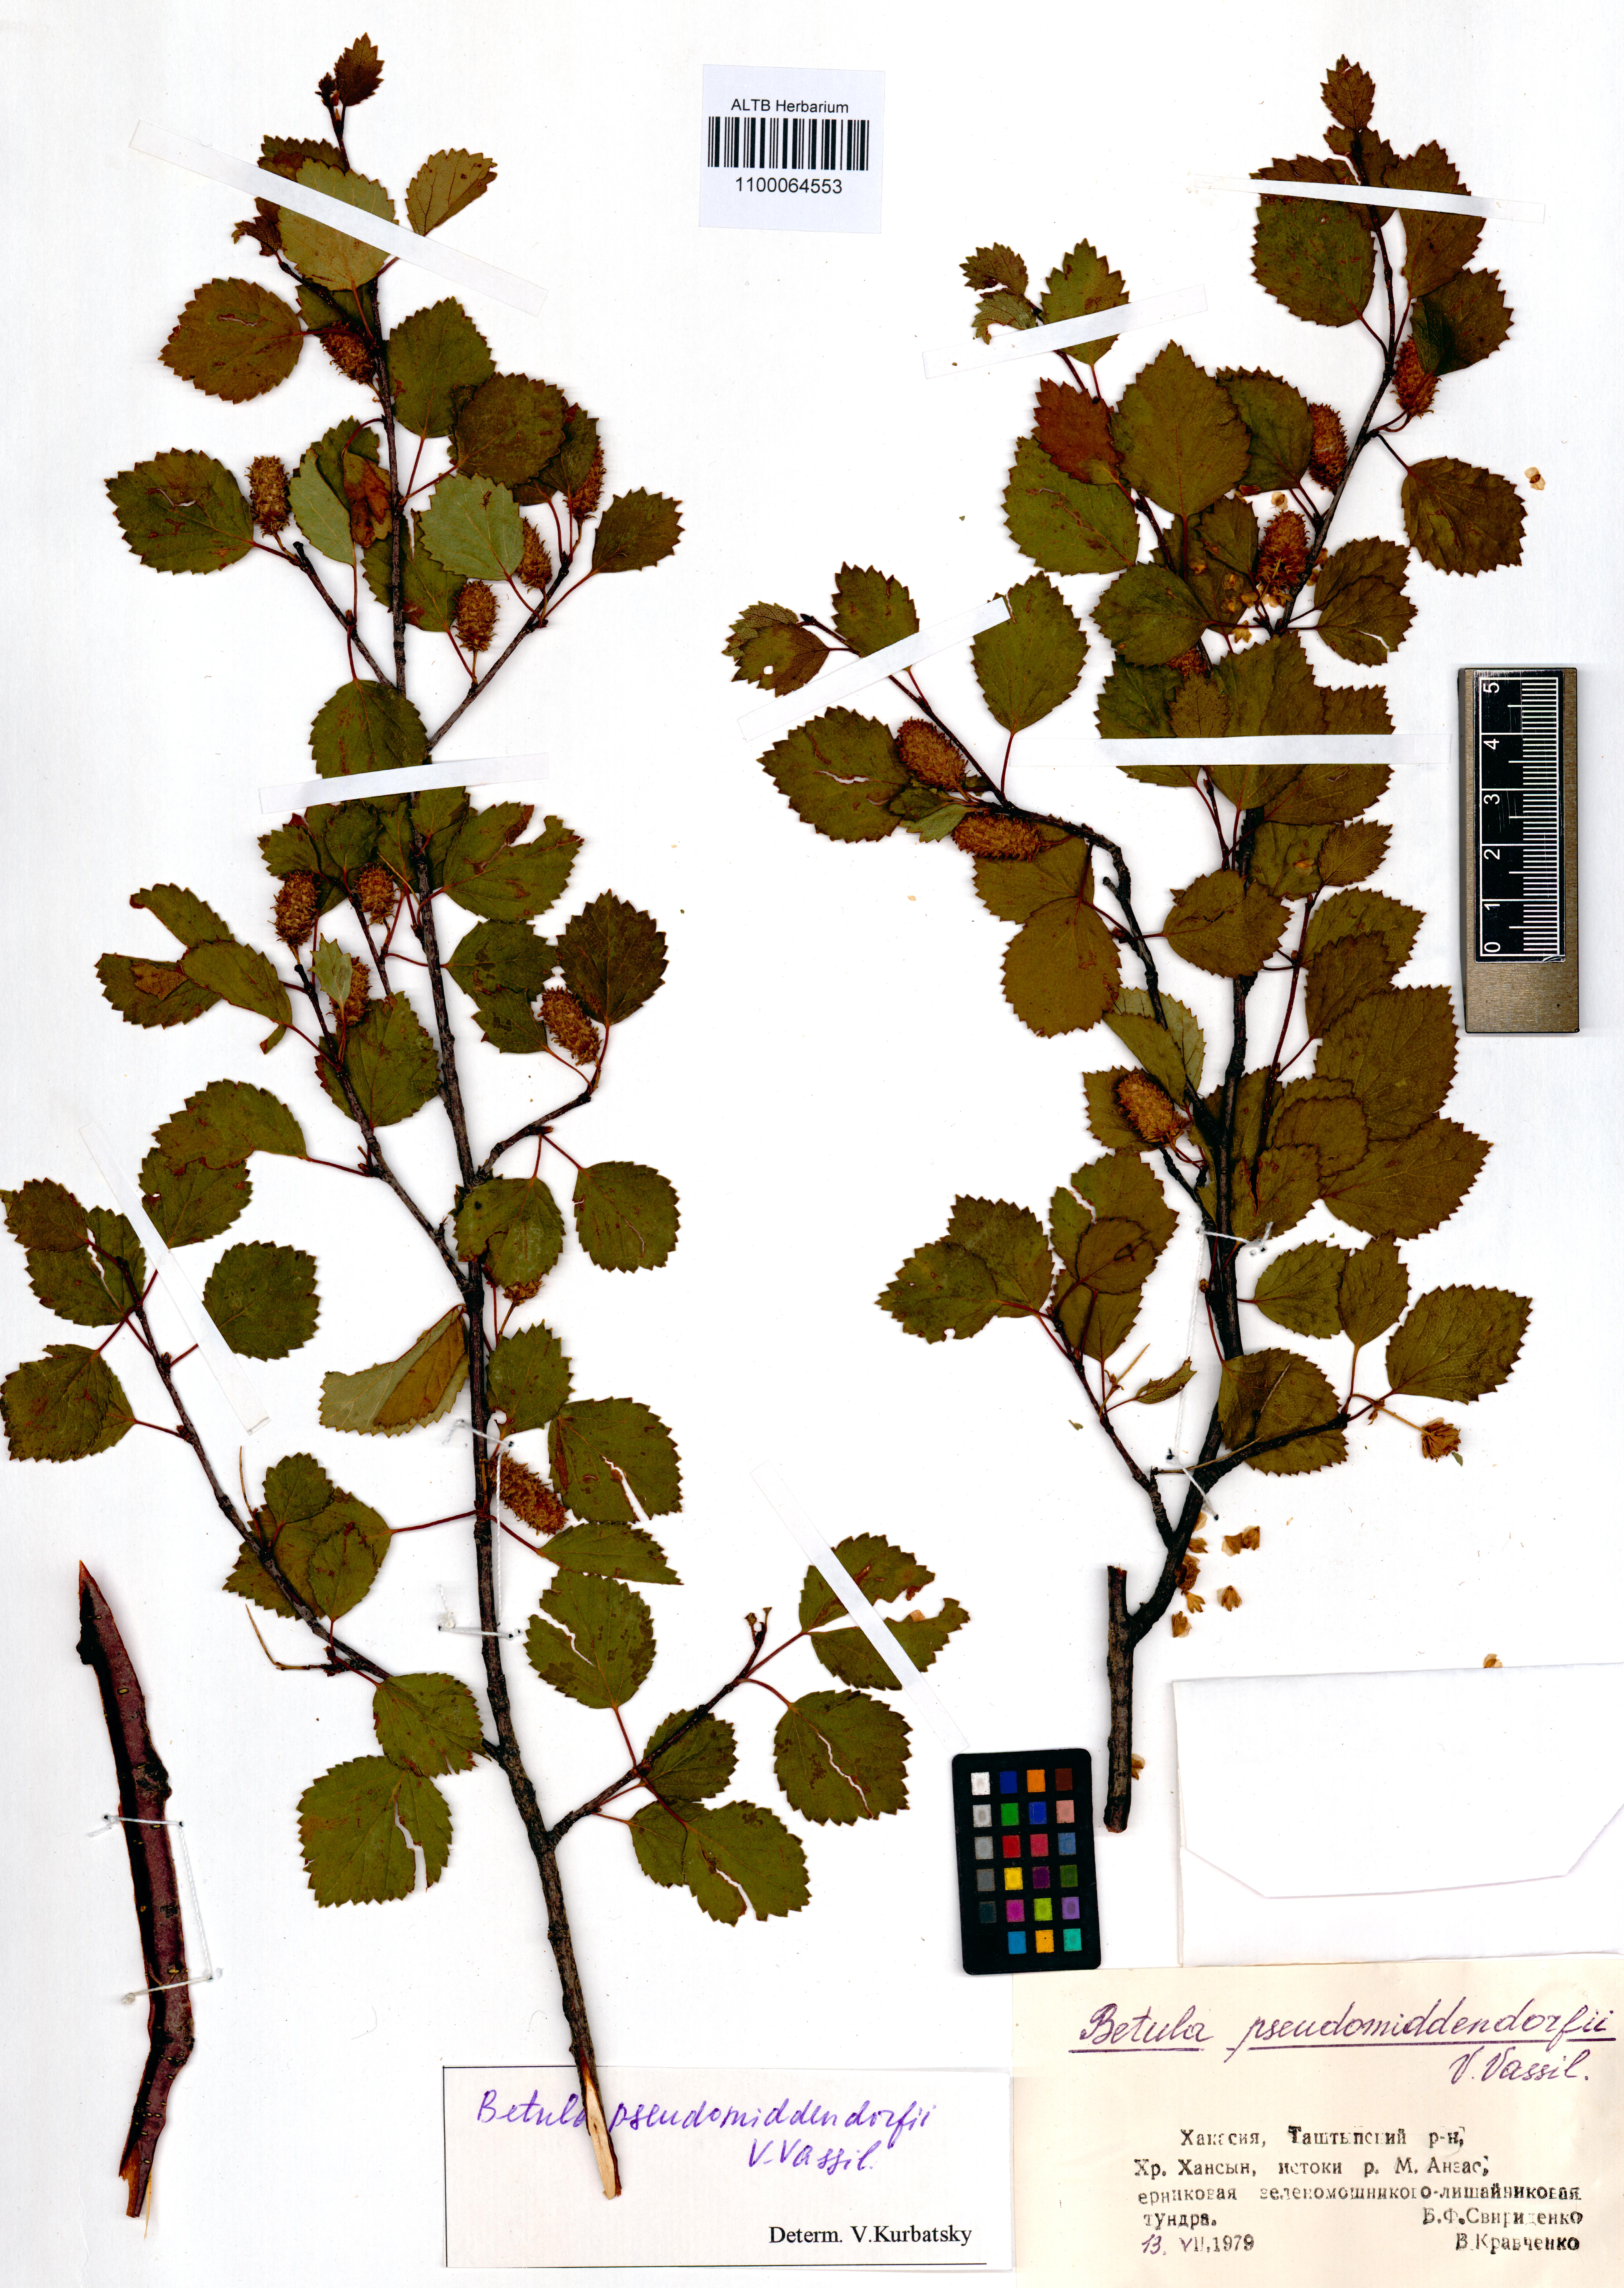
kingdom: Plantae
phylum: Tracheophyta
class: Magnoliopsida
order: Fagales
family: Betulaceae
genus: Betula
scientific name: Betula fruticosa
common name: Japanese bog birch
